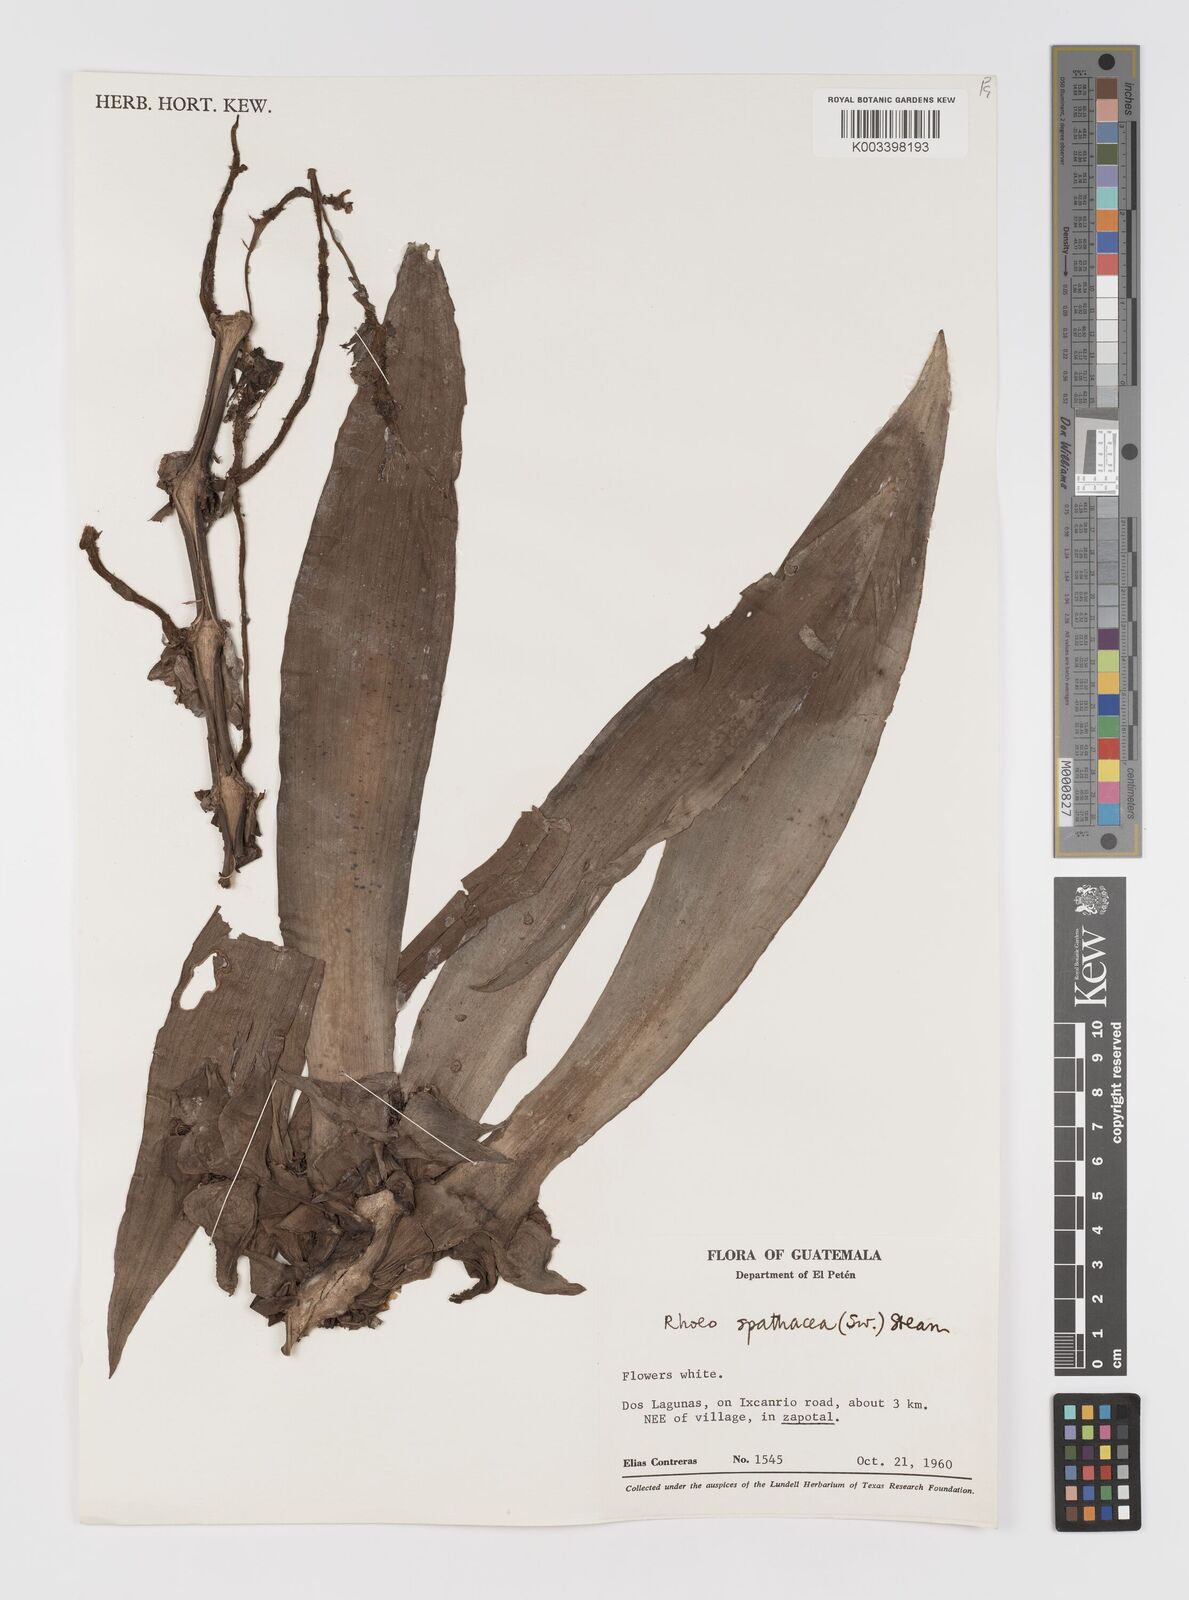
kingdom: Plantae
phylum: Tracheophyta
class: Liliopsida
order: Commelinales
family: Commelinaceae
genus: Tradescantia
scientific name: Tradescantia spathacea
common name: Boatlily
